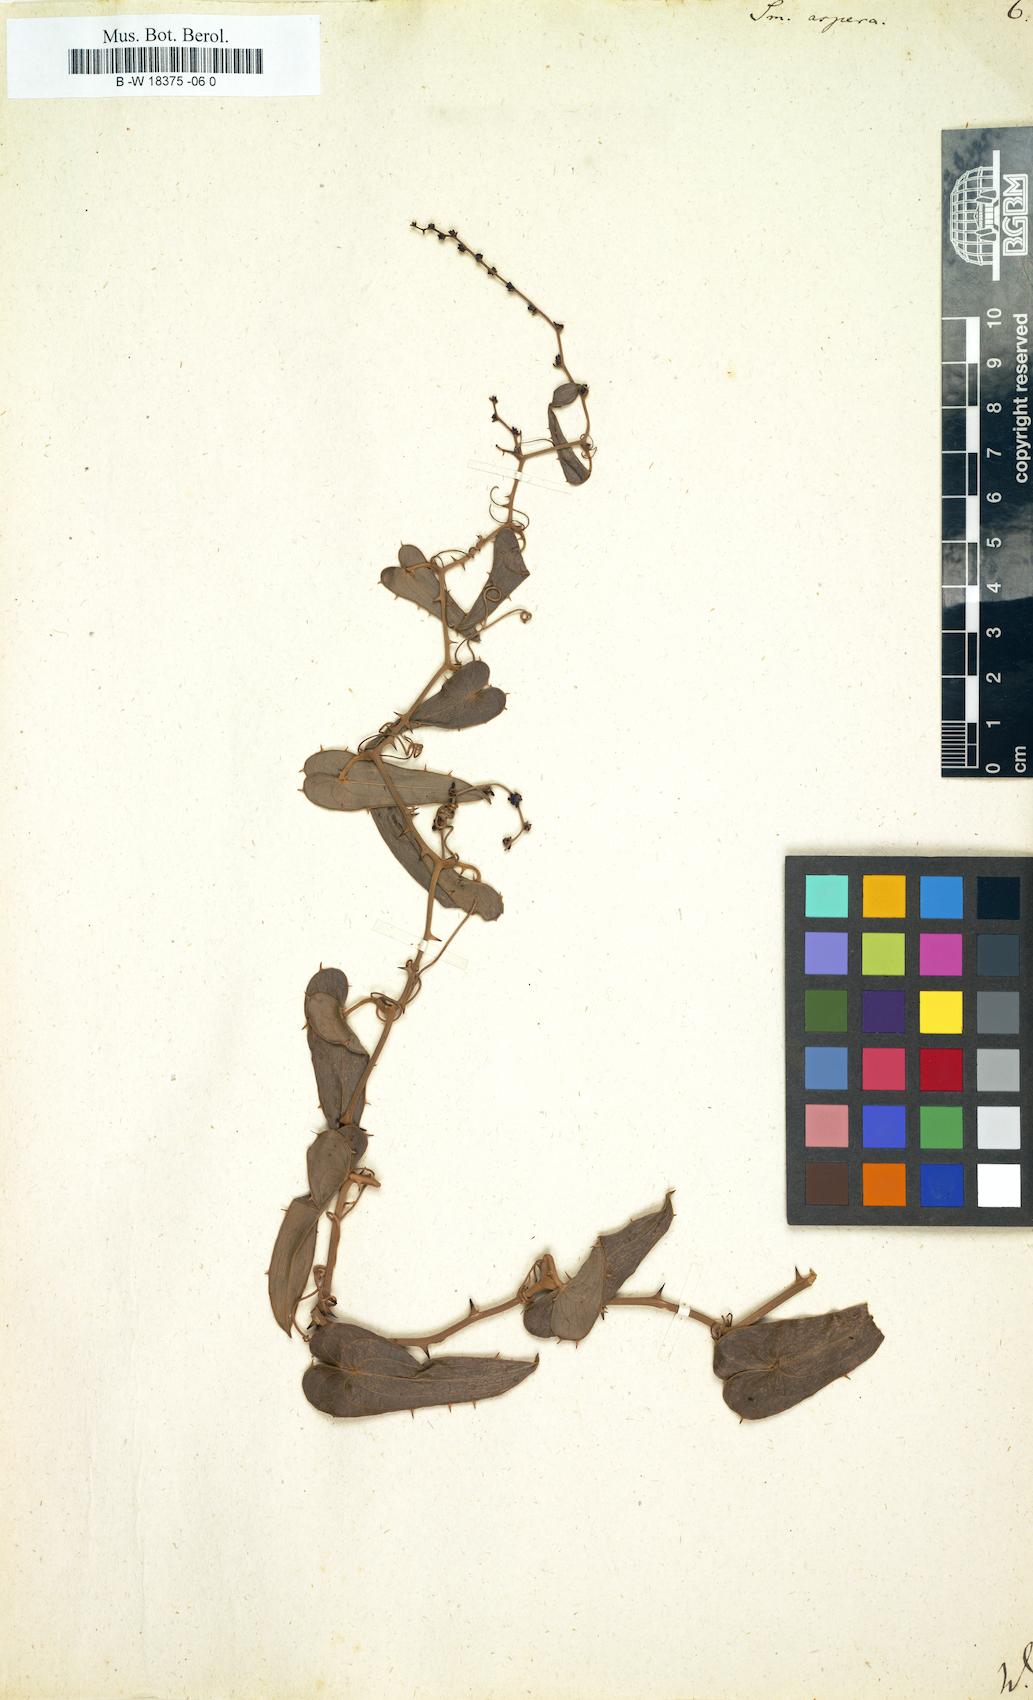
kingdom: Plantae
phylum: Tracheophyta
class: Liliopsida
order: Liliales
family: Smilacaceae
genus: Smilax
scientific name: Smilax aspera
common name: Common smilax
